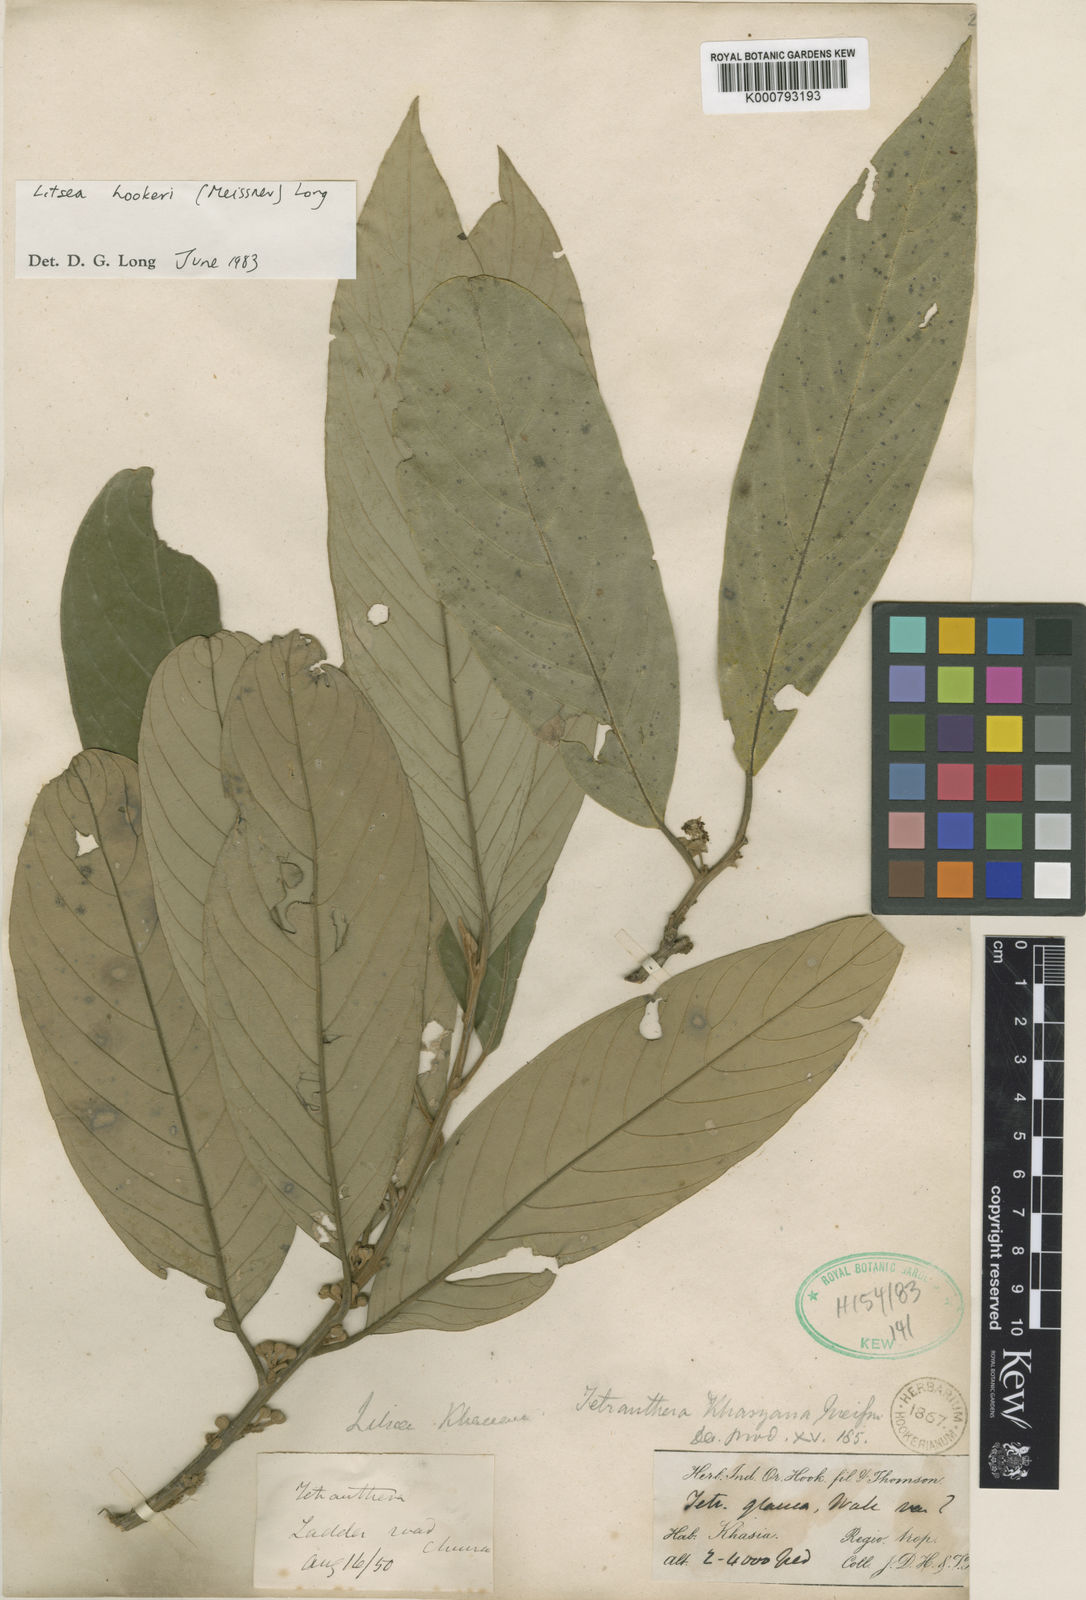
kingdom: Plantae
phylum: Tracheophyta
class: Magnoliopsida
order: Laurales
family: Lauraceae
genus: Litsea
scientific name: Litsea khasyana
